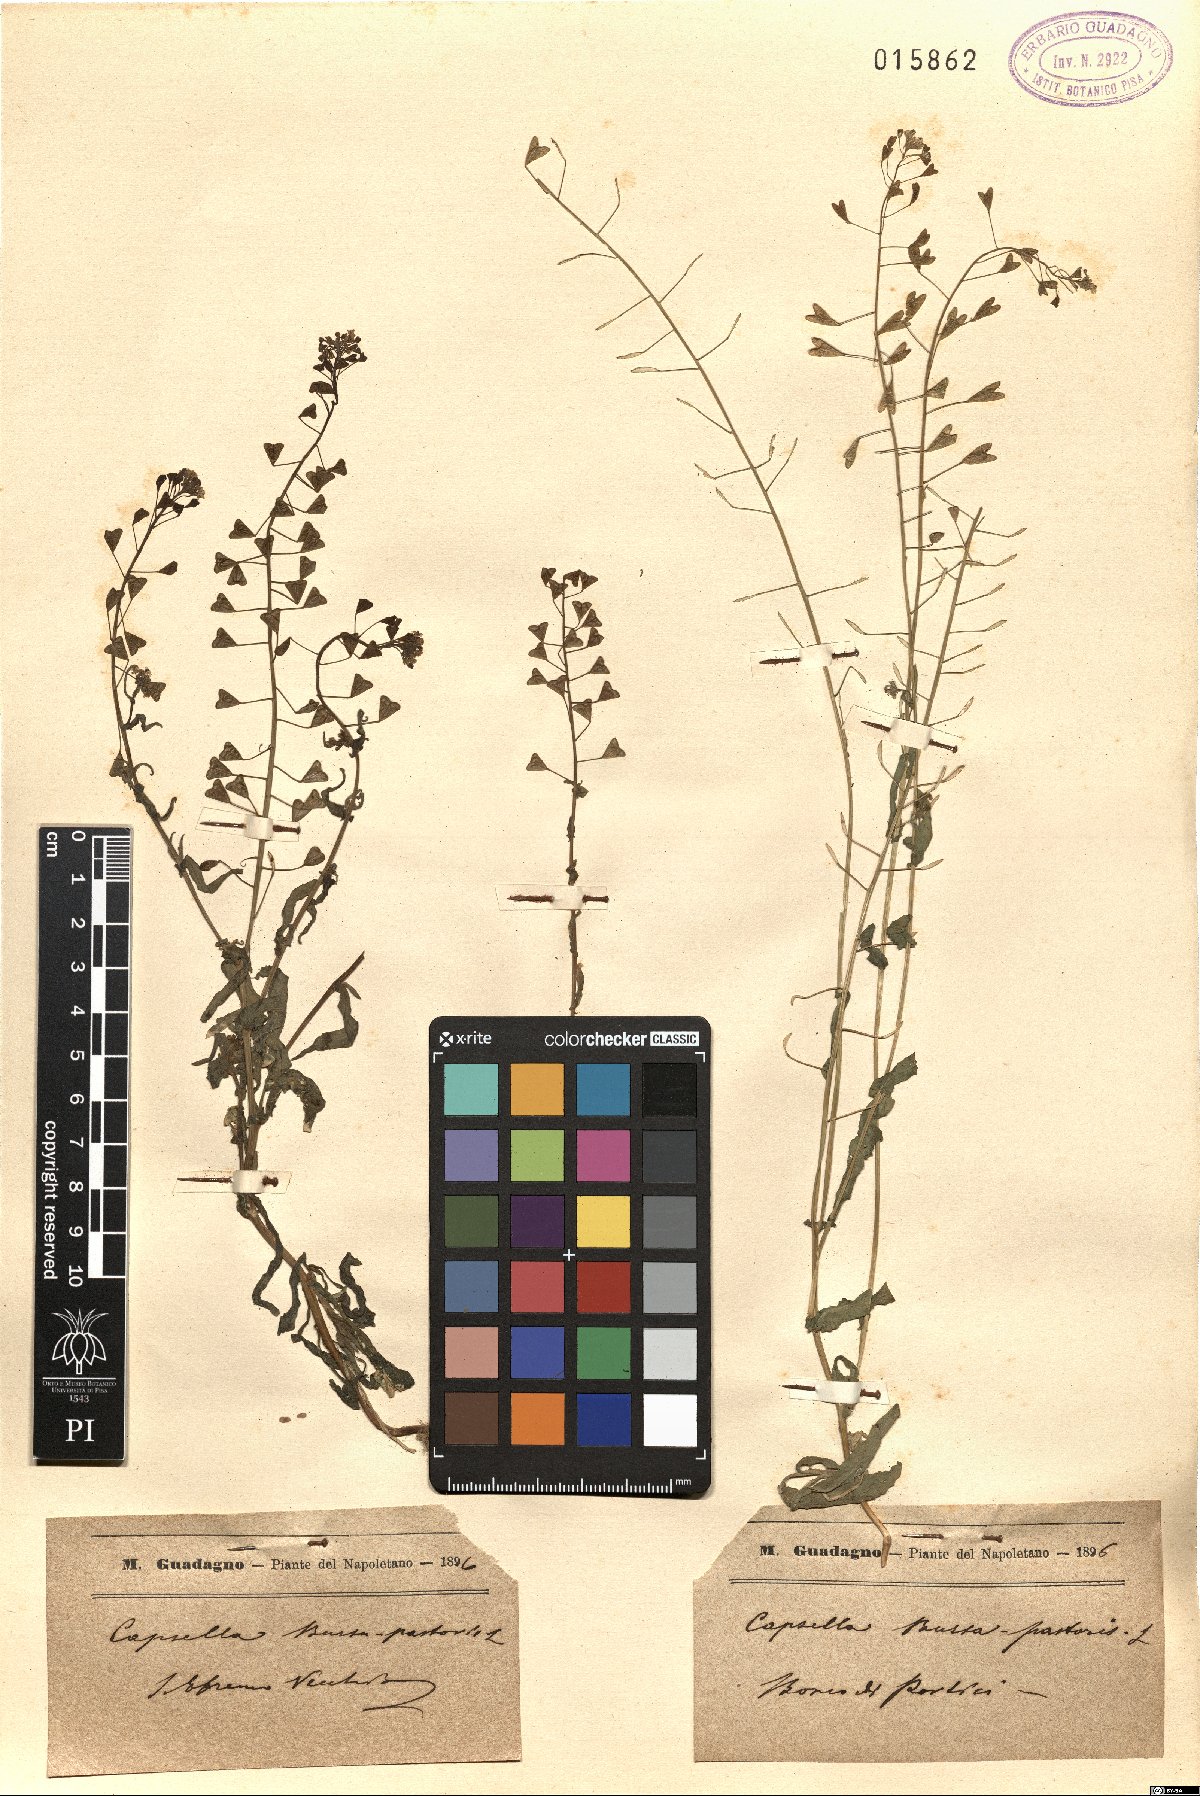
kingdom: Plantae
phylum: Tracheophyta
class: Magnoliopsida
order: Brassicales
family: Brassicaceae
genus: Capsella
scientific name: Capsella bursa-pastoris
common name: Shepherd's purse
